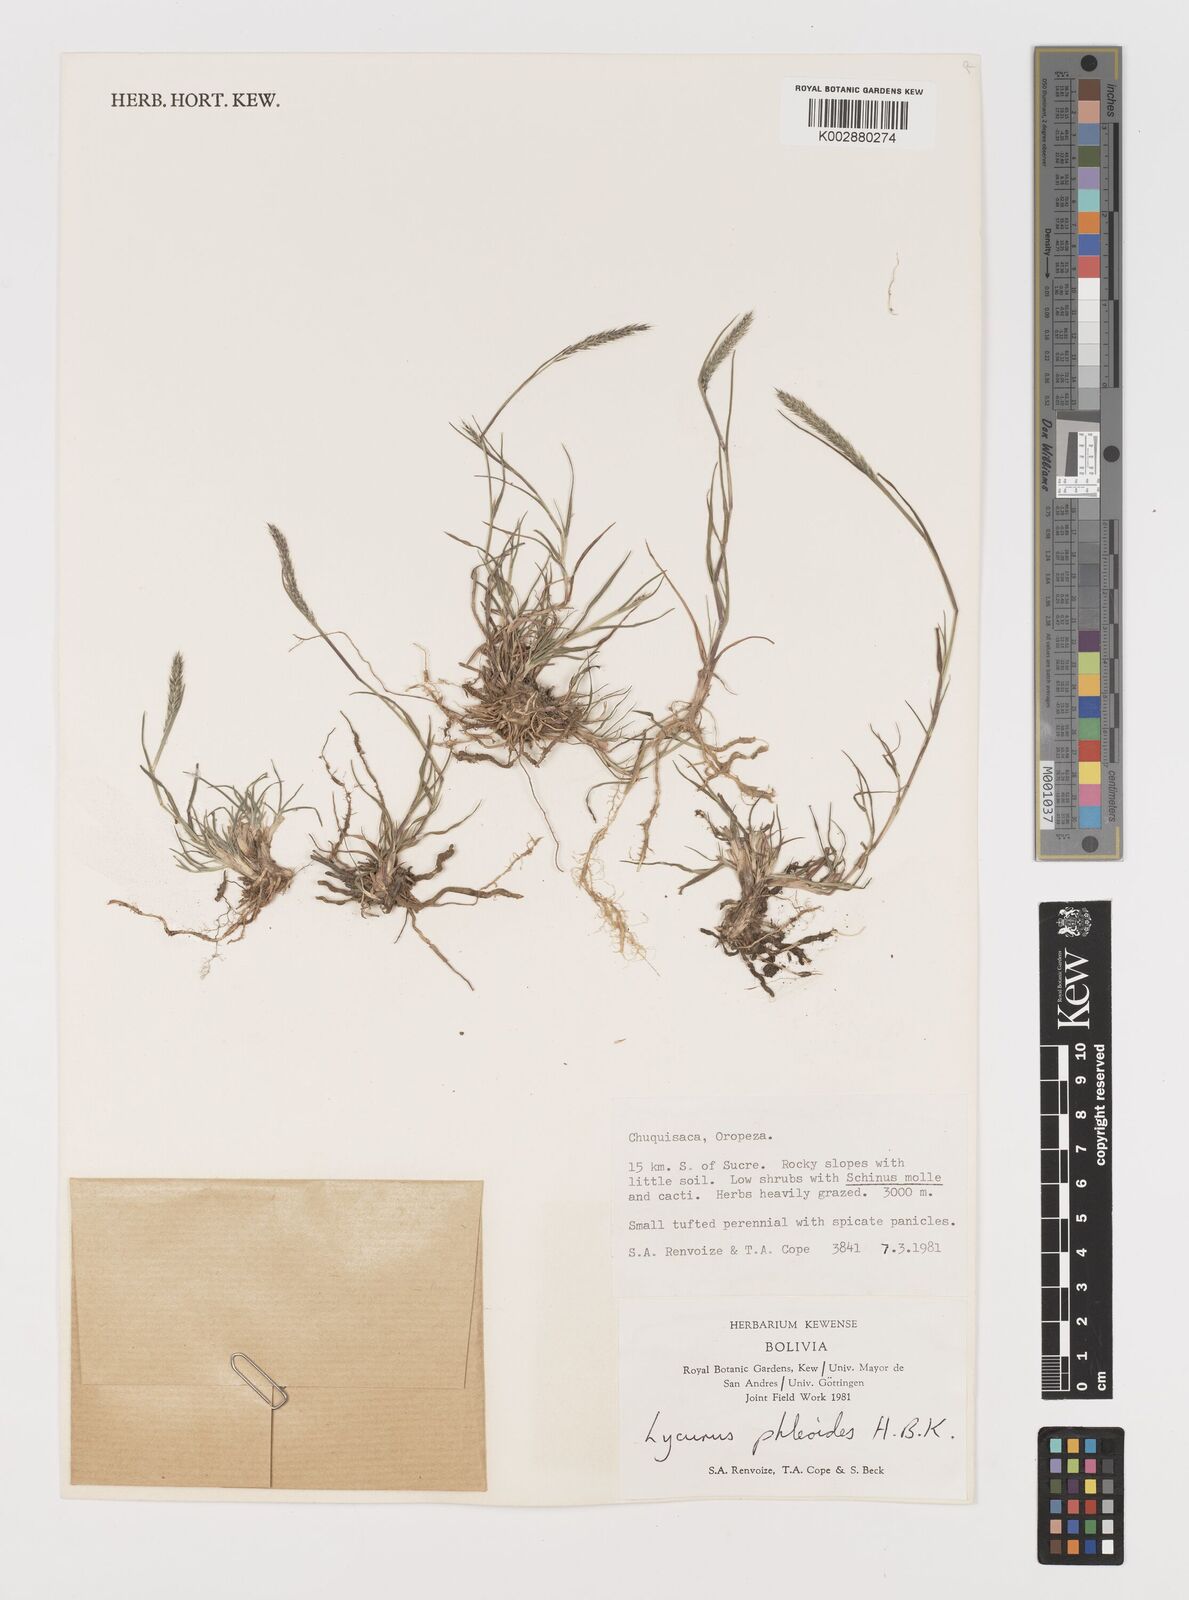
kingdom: Plantae
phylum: Tracheophyta
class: Liliopsida
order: Poales
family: Poaceae
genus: Muhlenbergia
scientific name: Muhlenbergia phalaroides
